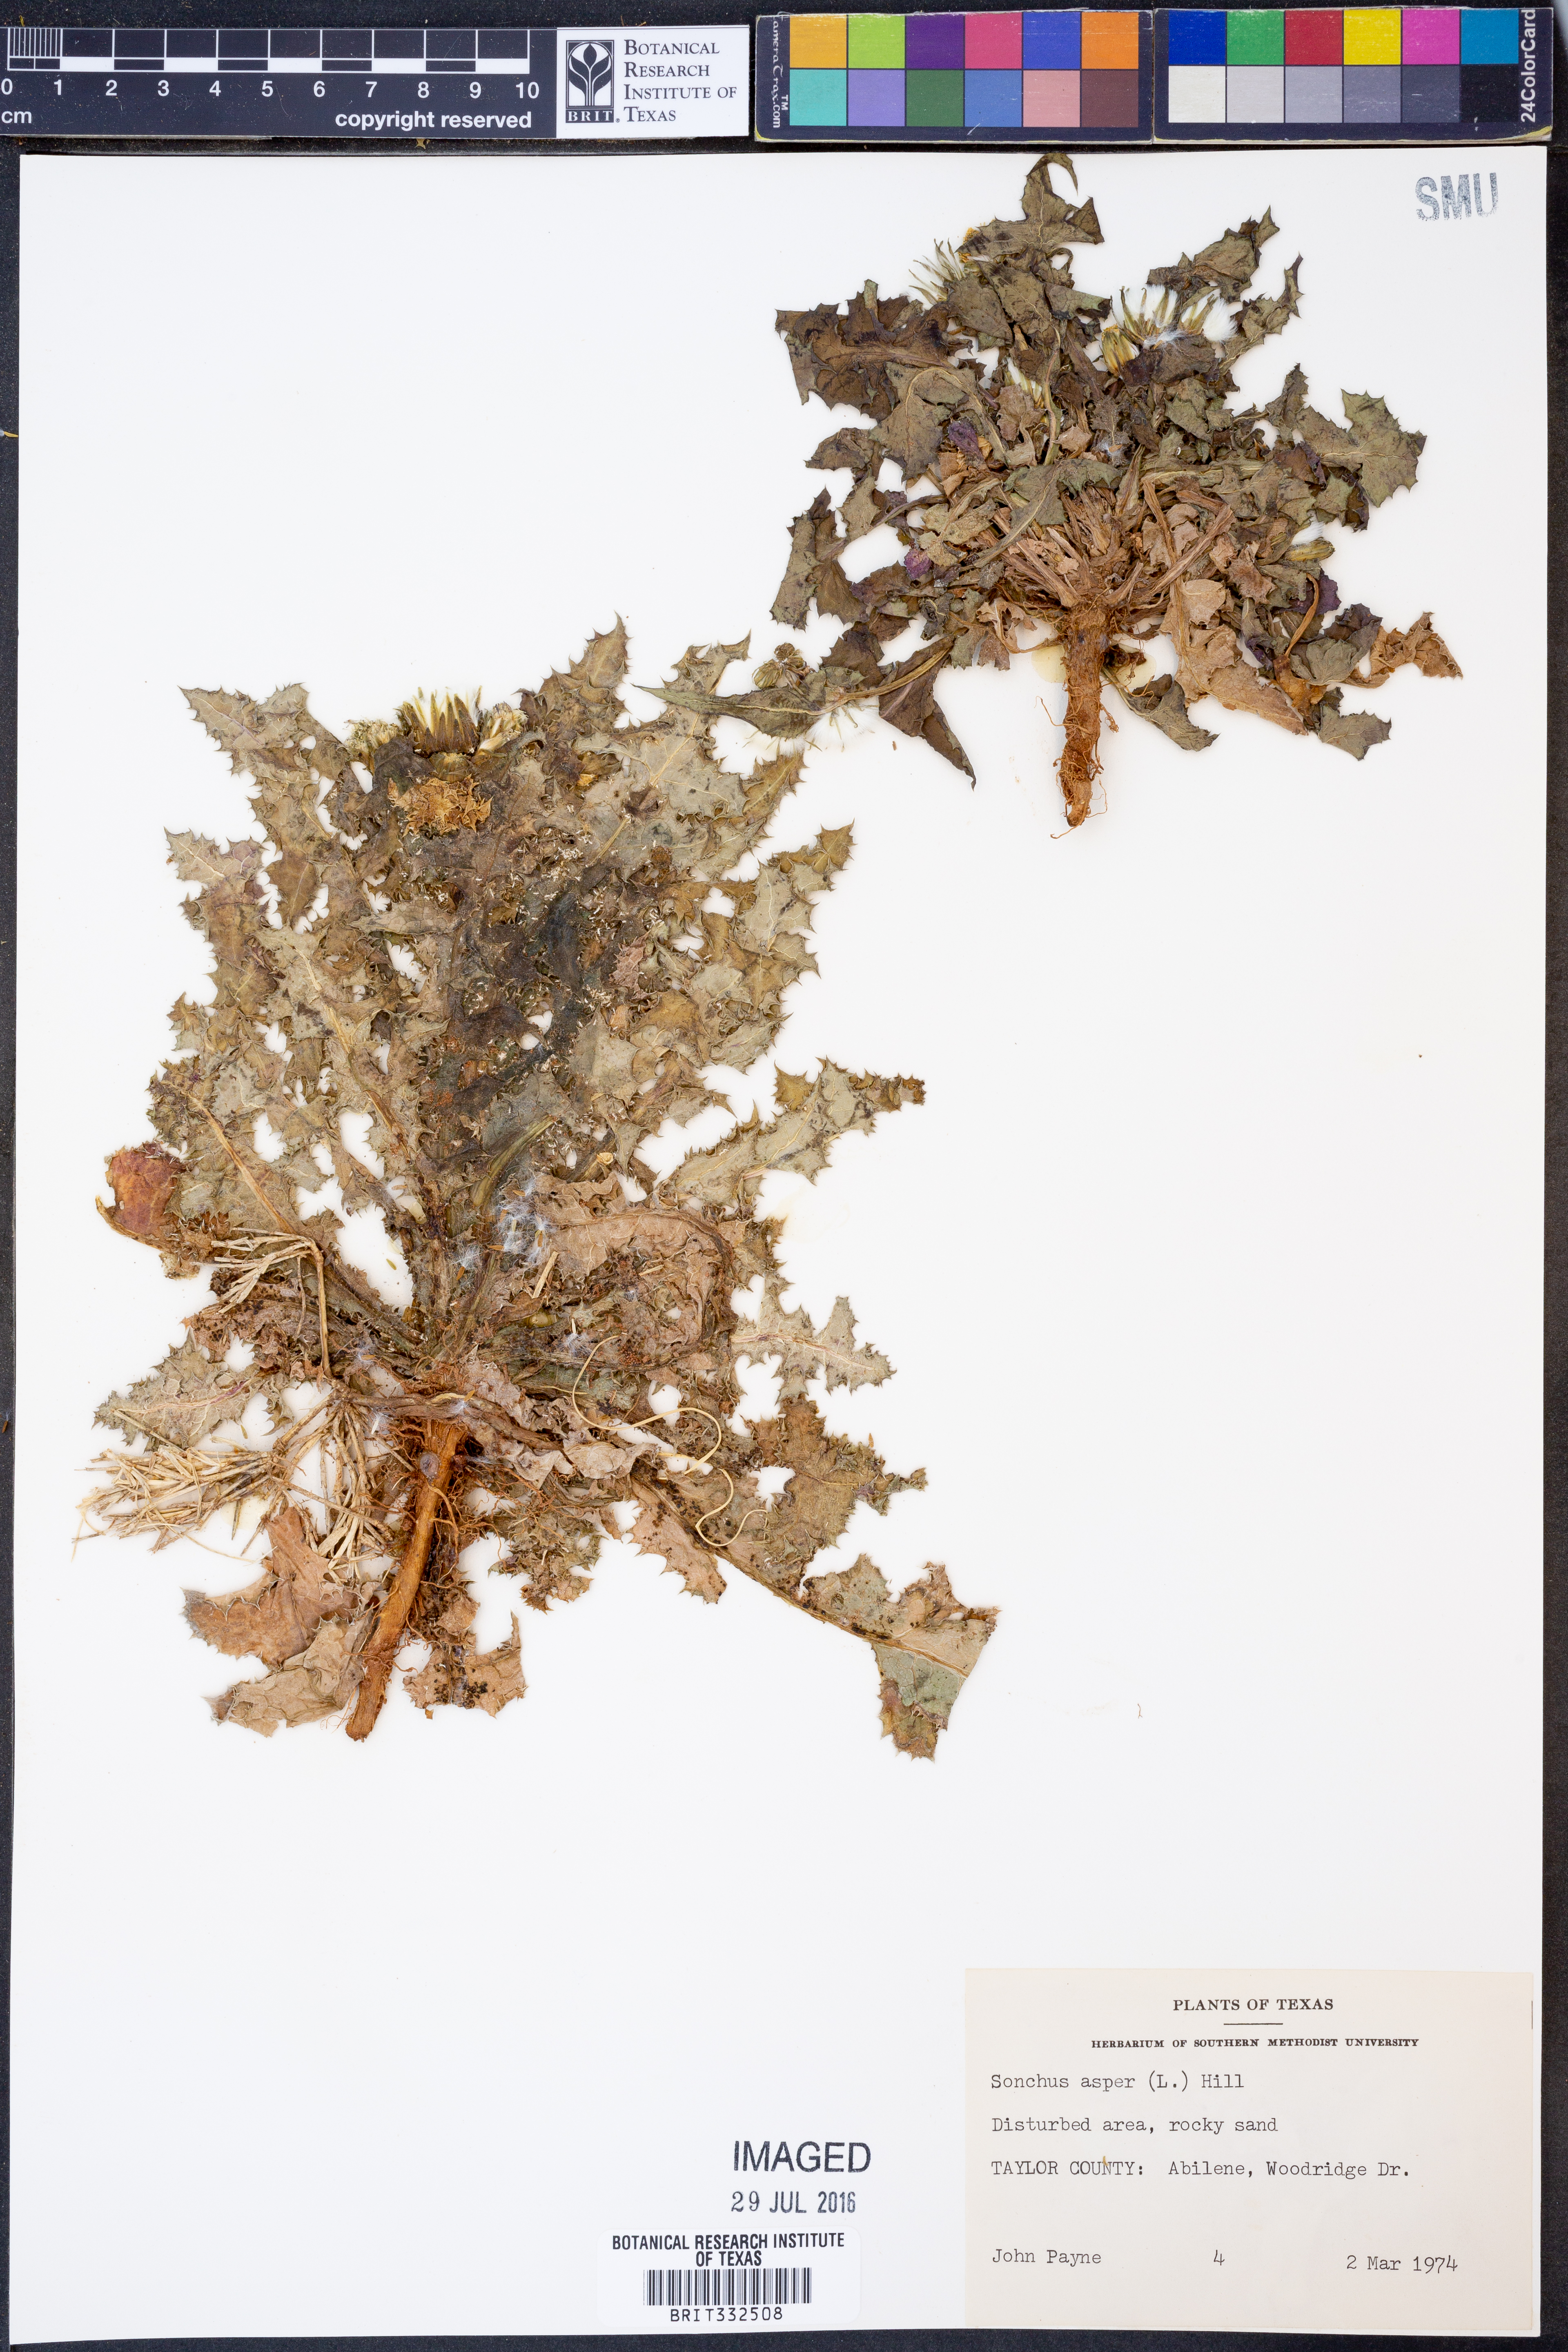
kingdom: Plantae
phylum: Tracheophyta
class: Magnoliopsida
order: Asterales
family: Asteraceae
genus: Sonchus
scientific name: Sonchus asper
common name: Prickly sow-thistle
